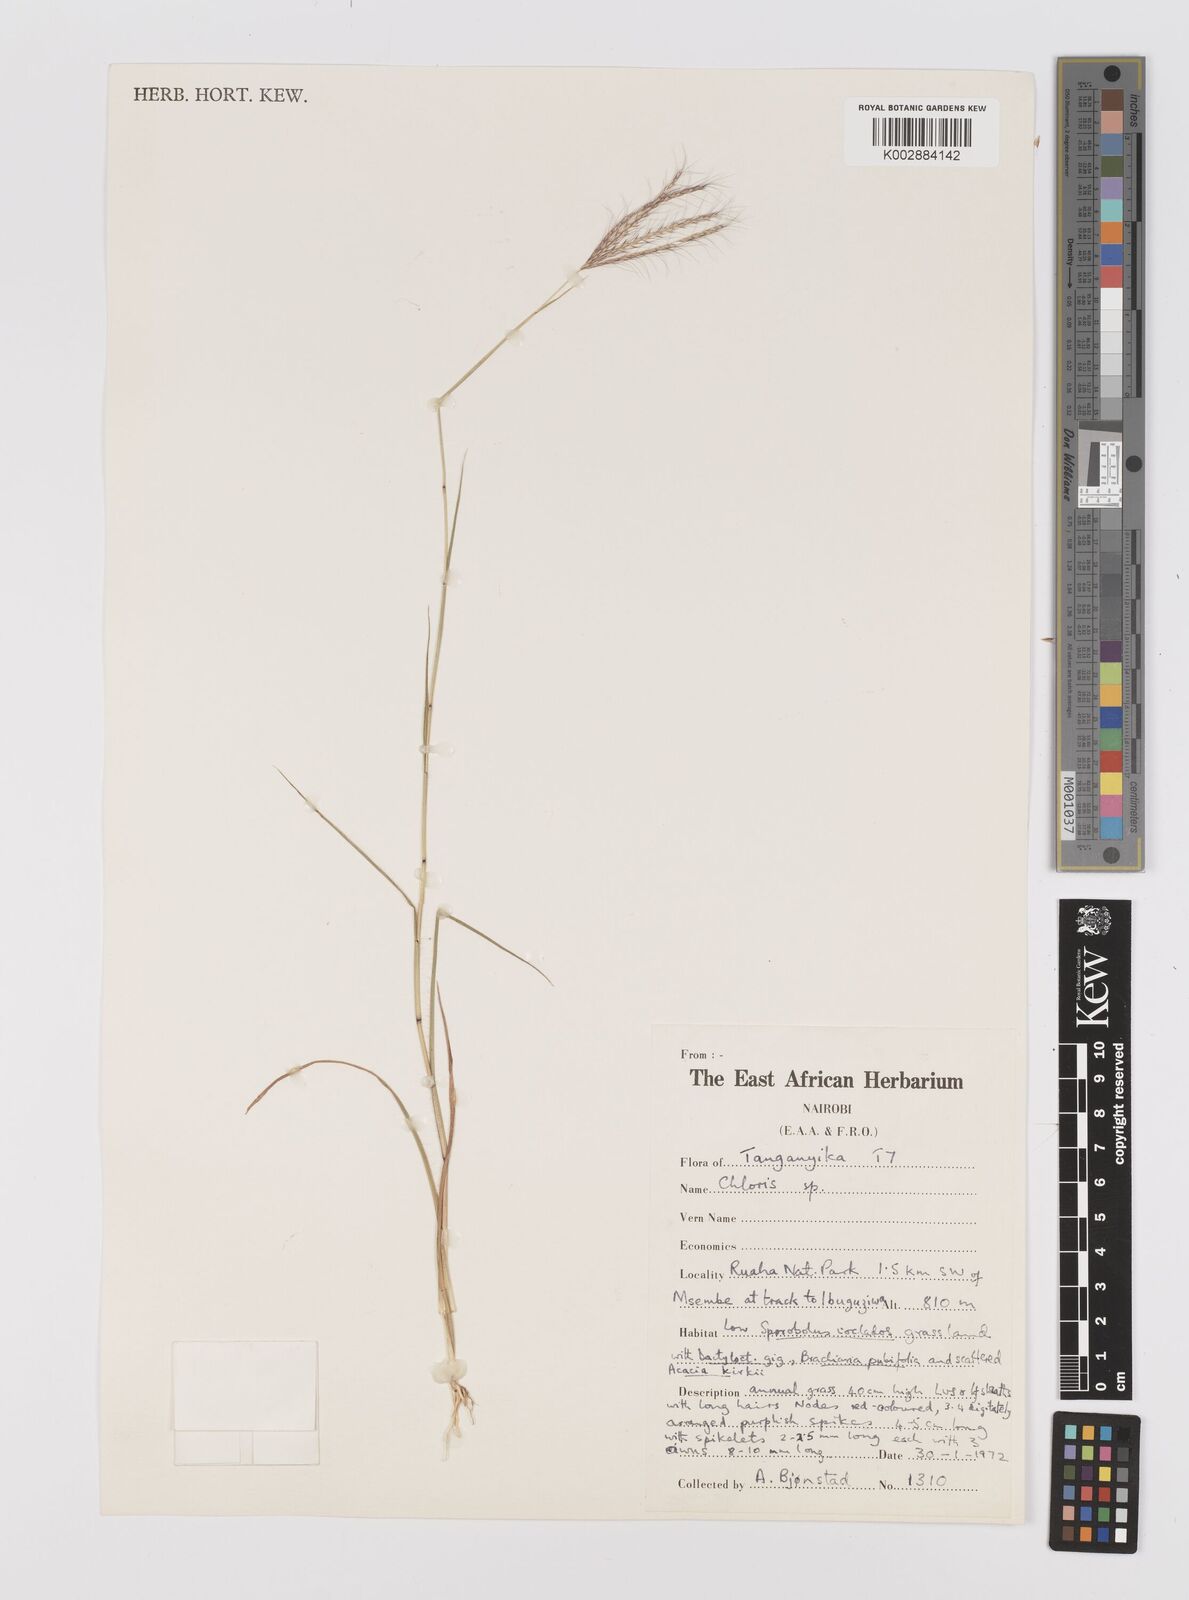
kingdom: Plantae
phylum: Tracheophyta
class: Liliopsida
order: Poales
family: Poaceae
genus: Chloris
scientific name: Chloris ruahensis
